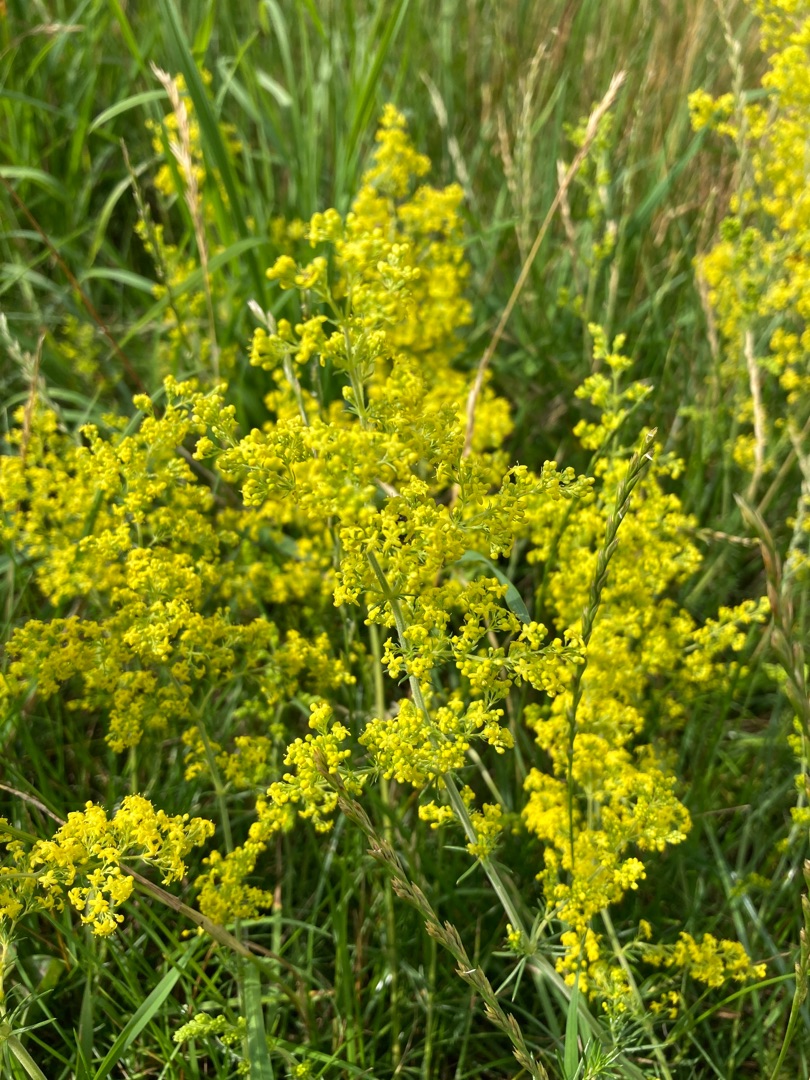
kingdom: Plantae
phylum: Tracheophyta
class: Magnoliopsida
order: Gentianales
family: Rubiaceae
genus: Galium
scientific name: Galium verum
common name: Gul snerre
